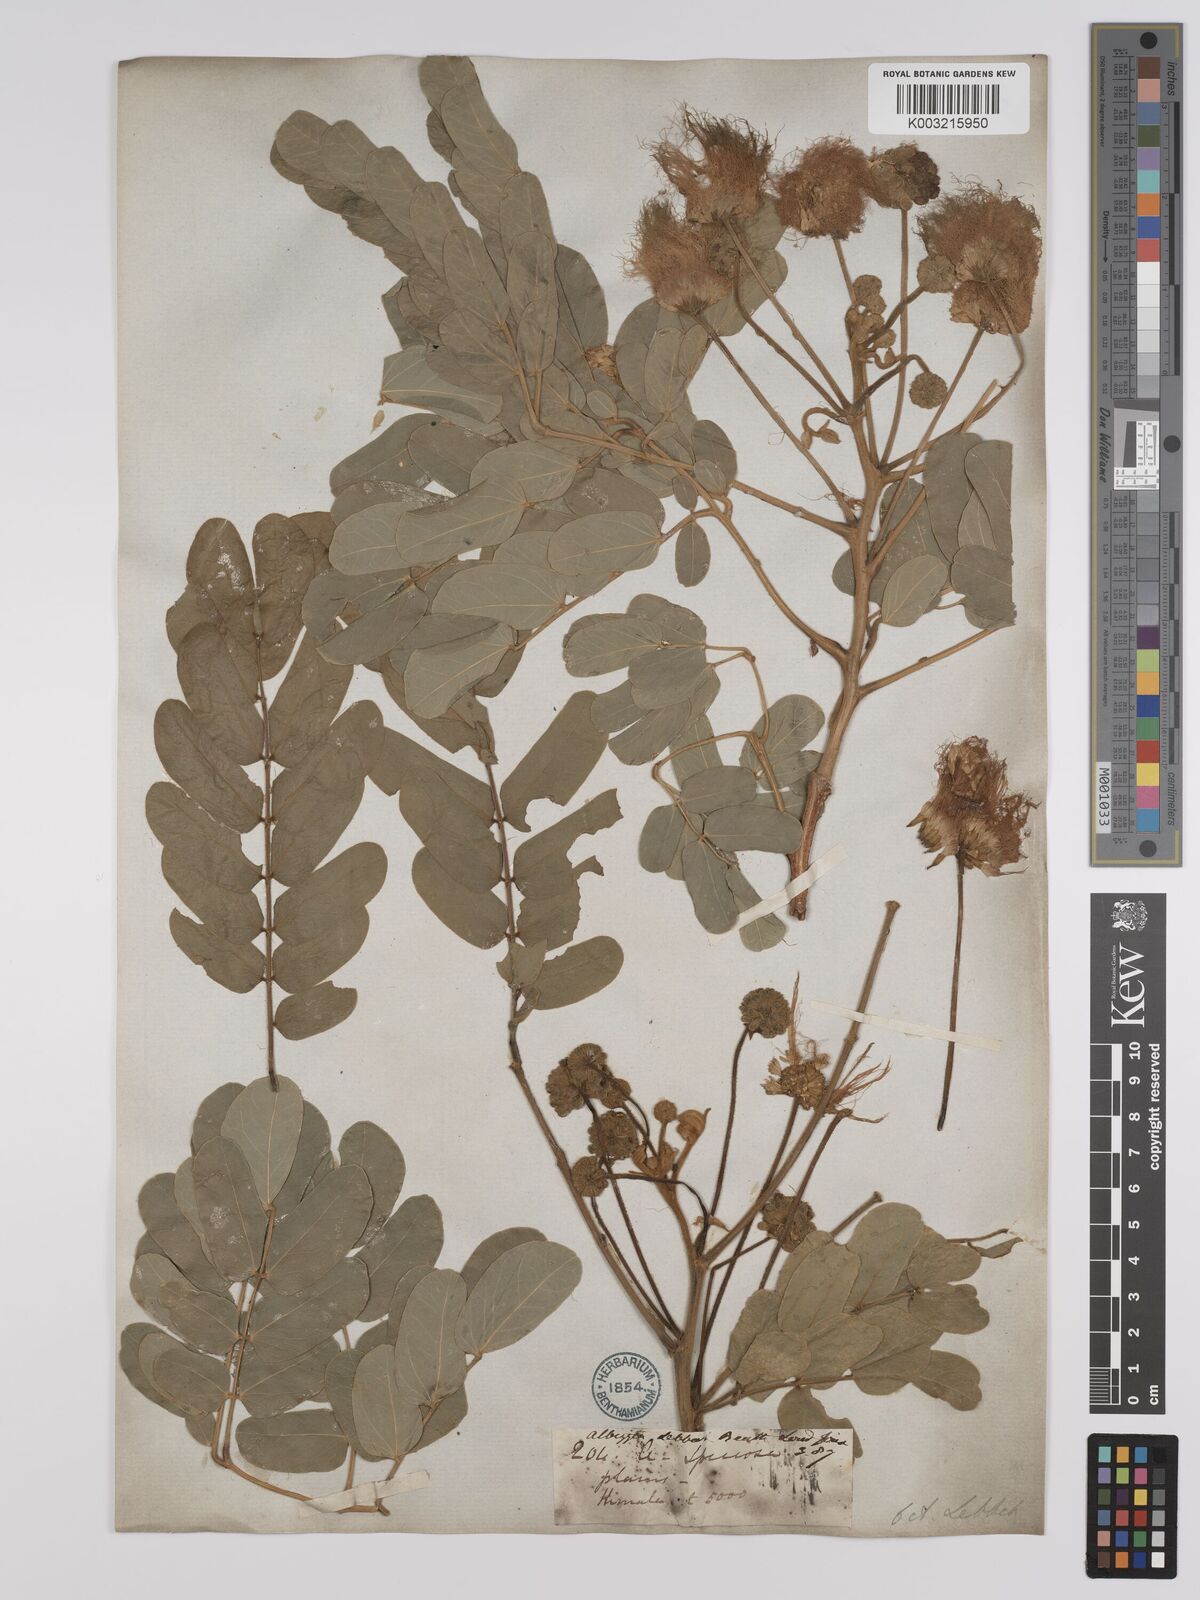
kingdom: Plantae
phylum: Tracheophyta
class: Magnoliopsida
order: Fabales
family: Fabaceae
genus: Albizia
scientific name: Albizia lebbeck
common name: Woman's tongue
